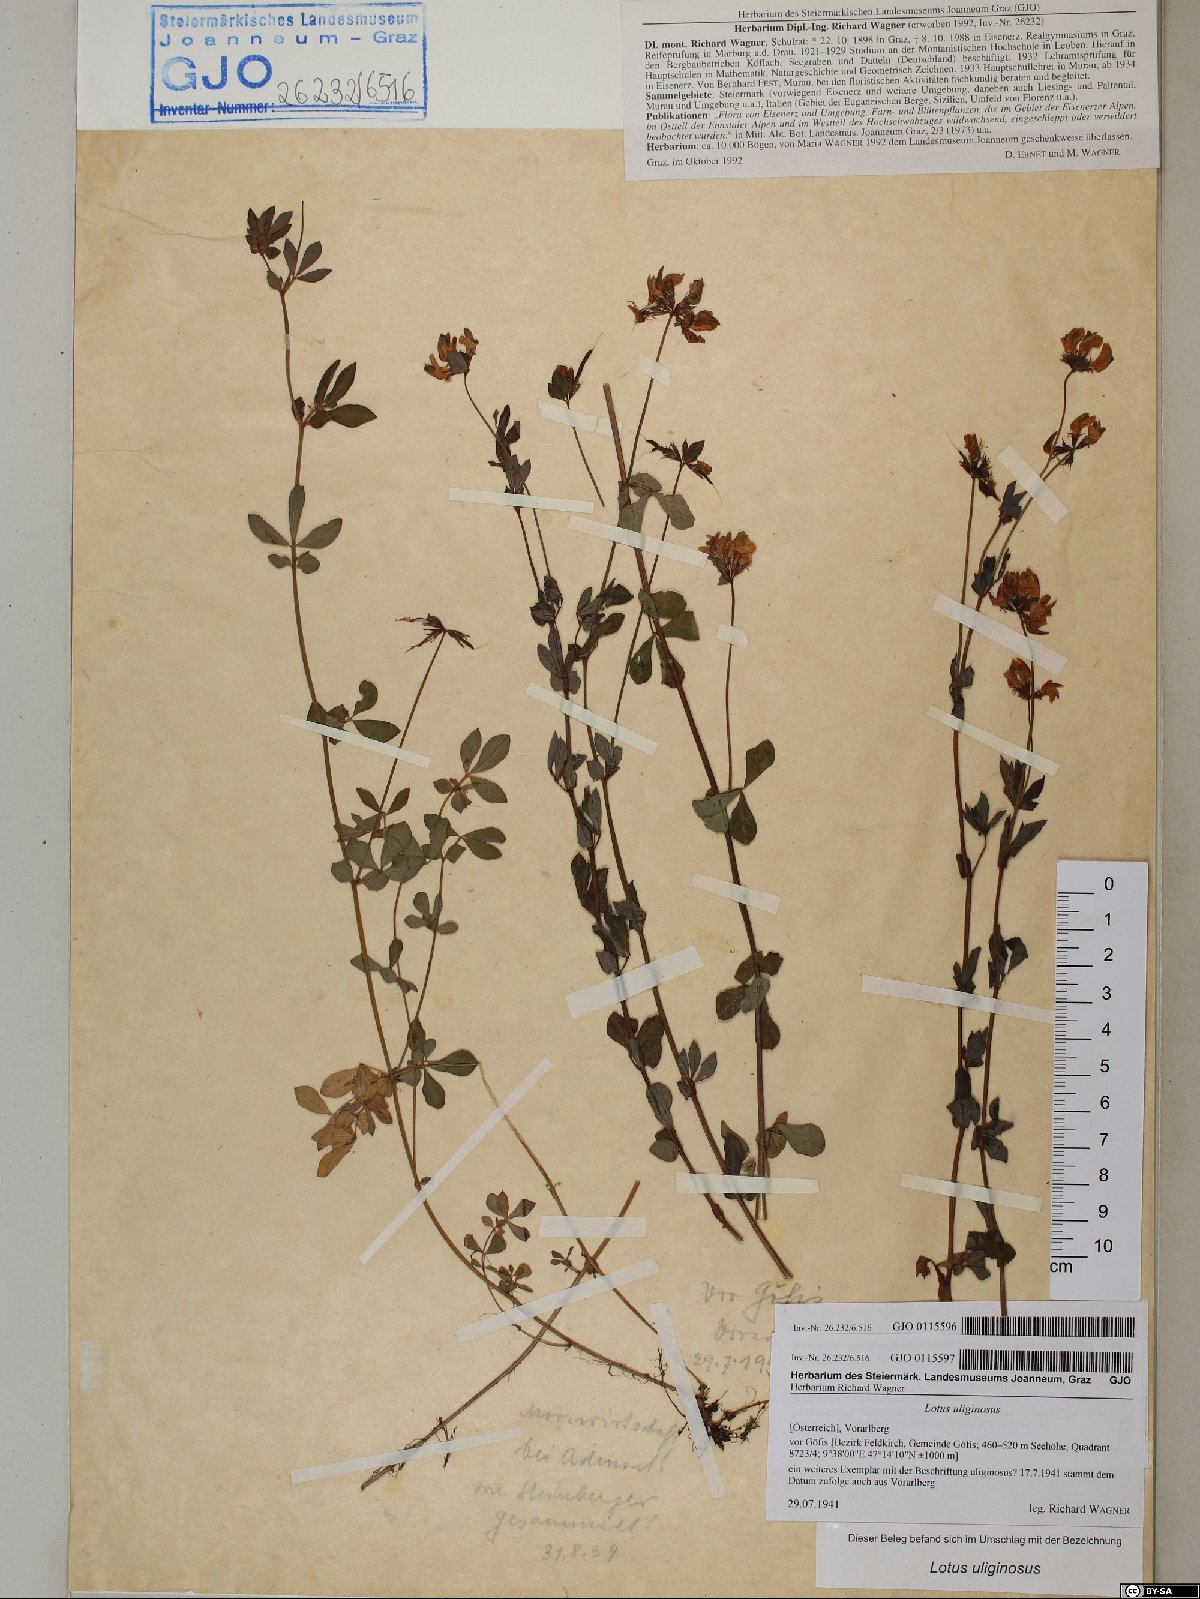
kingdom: Plantae
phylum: Tracheophyta
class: Magnoliopsida
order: Fabales
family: Fabaceae
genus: Lotus
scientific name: Lotus pedunculatus
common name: Greater birdsfoot-trefoil
